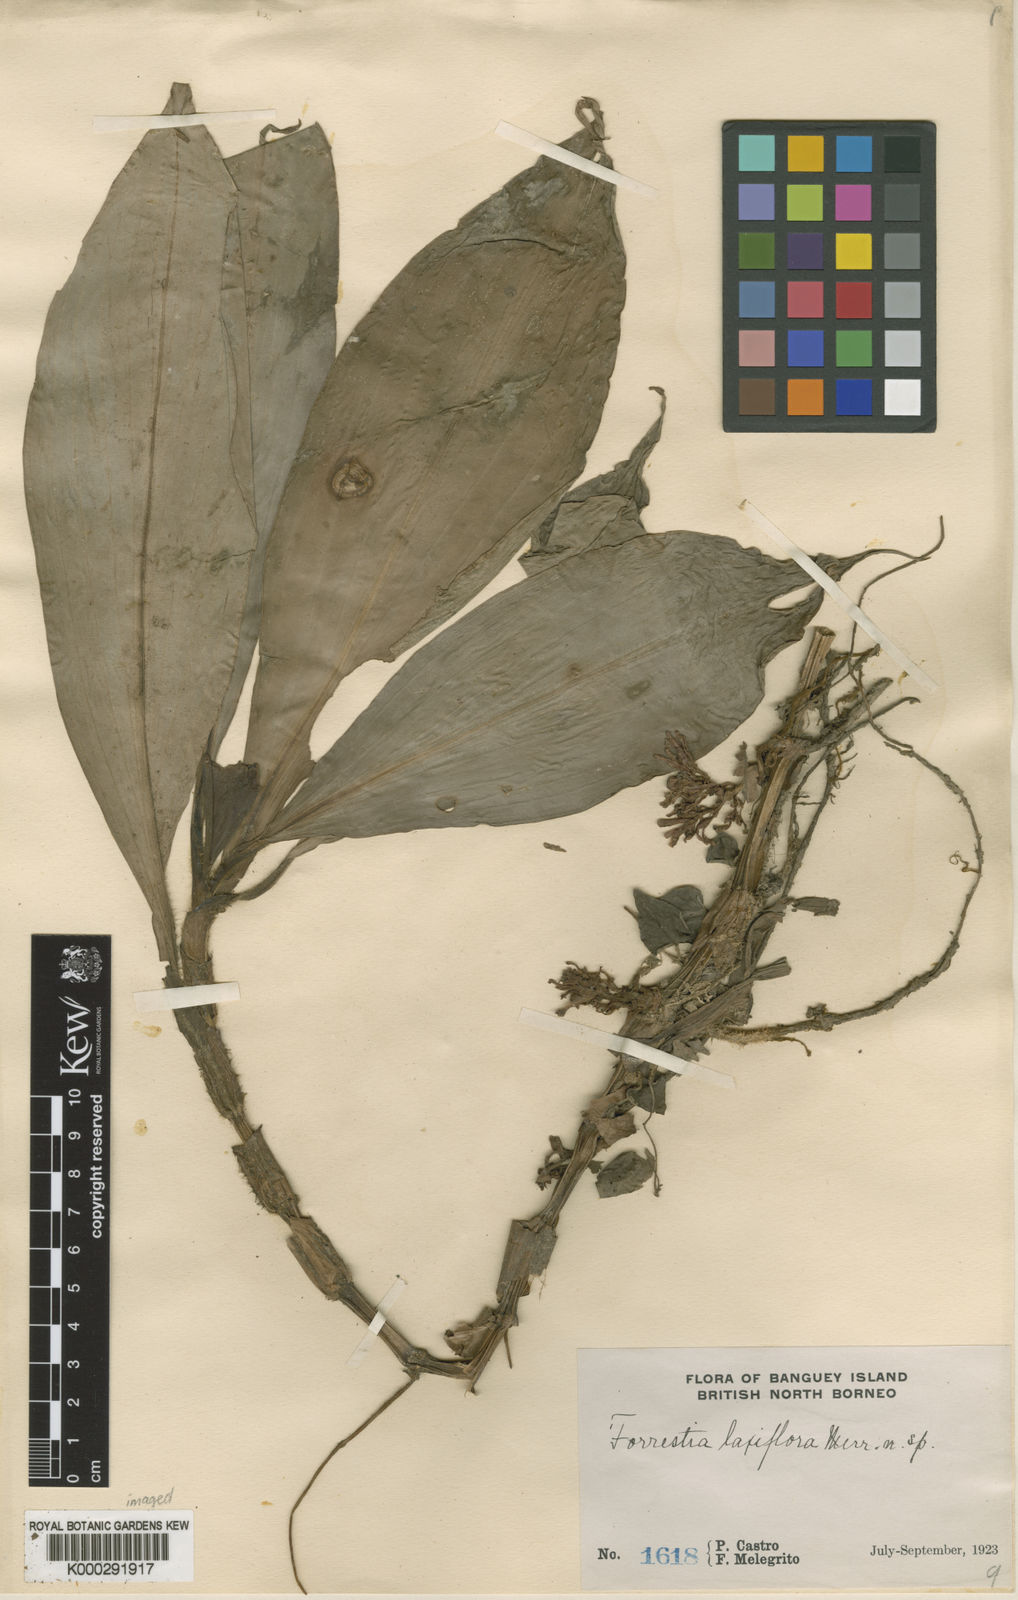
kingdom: Plantae
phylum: Tracheophyta
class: Liliopsida
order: Commelinales
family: Commelinaceae
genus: Amischotolype
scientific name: Amischotolype laxiflora
